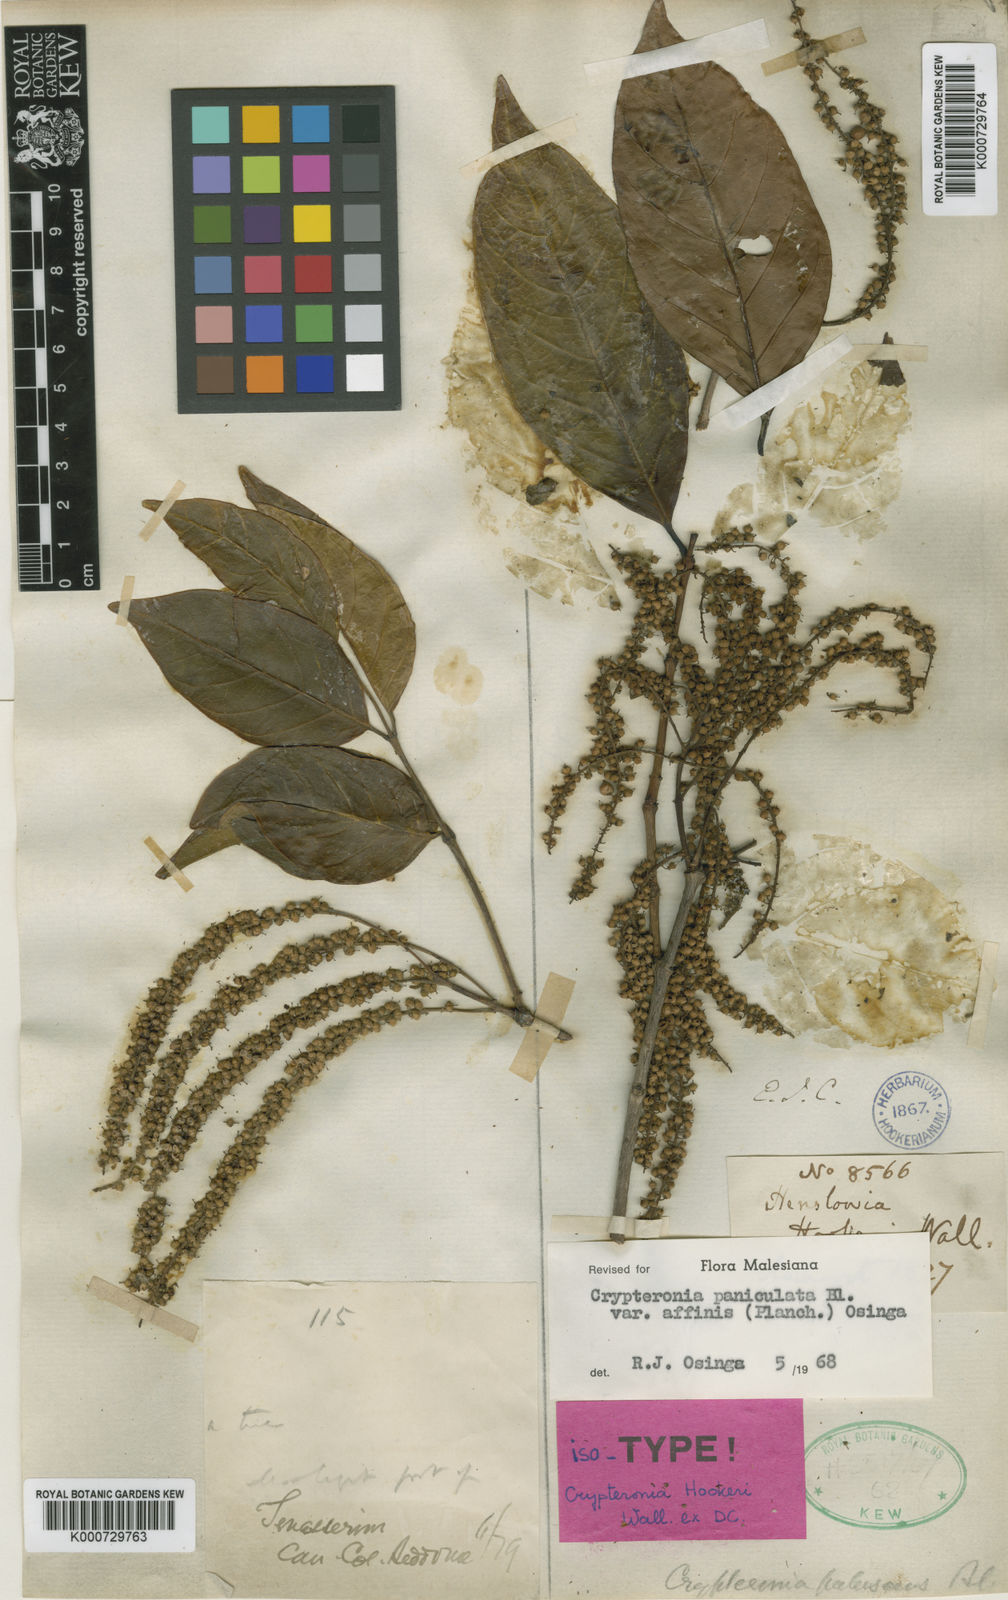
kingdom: Plantae
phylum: Tracheophyta
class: Magnoliopsida
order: Myrtales
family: Crypteroniaceae
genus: Crypteronia
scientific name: Crypteronia paniculata
